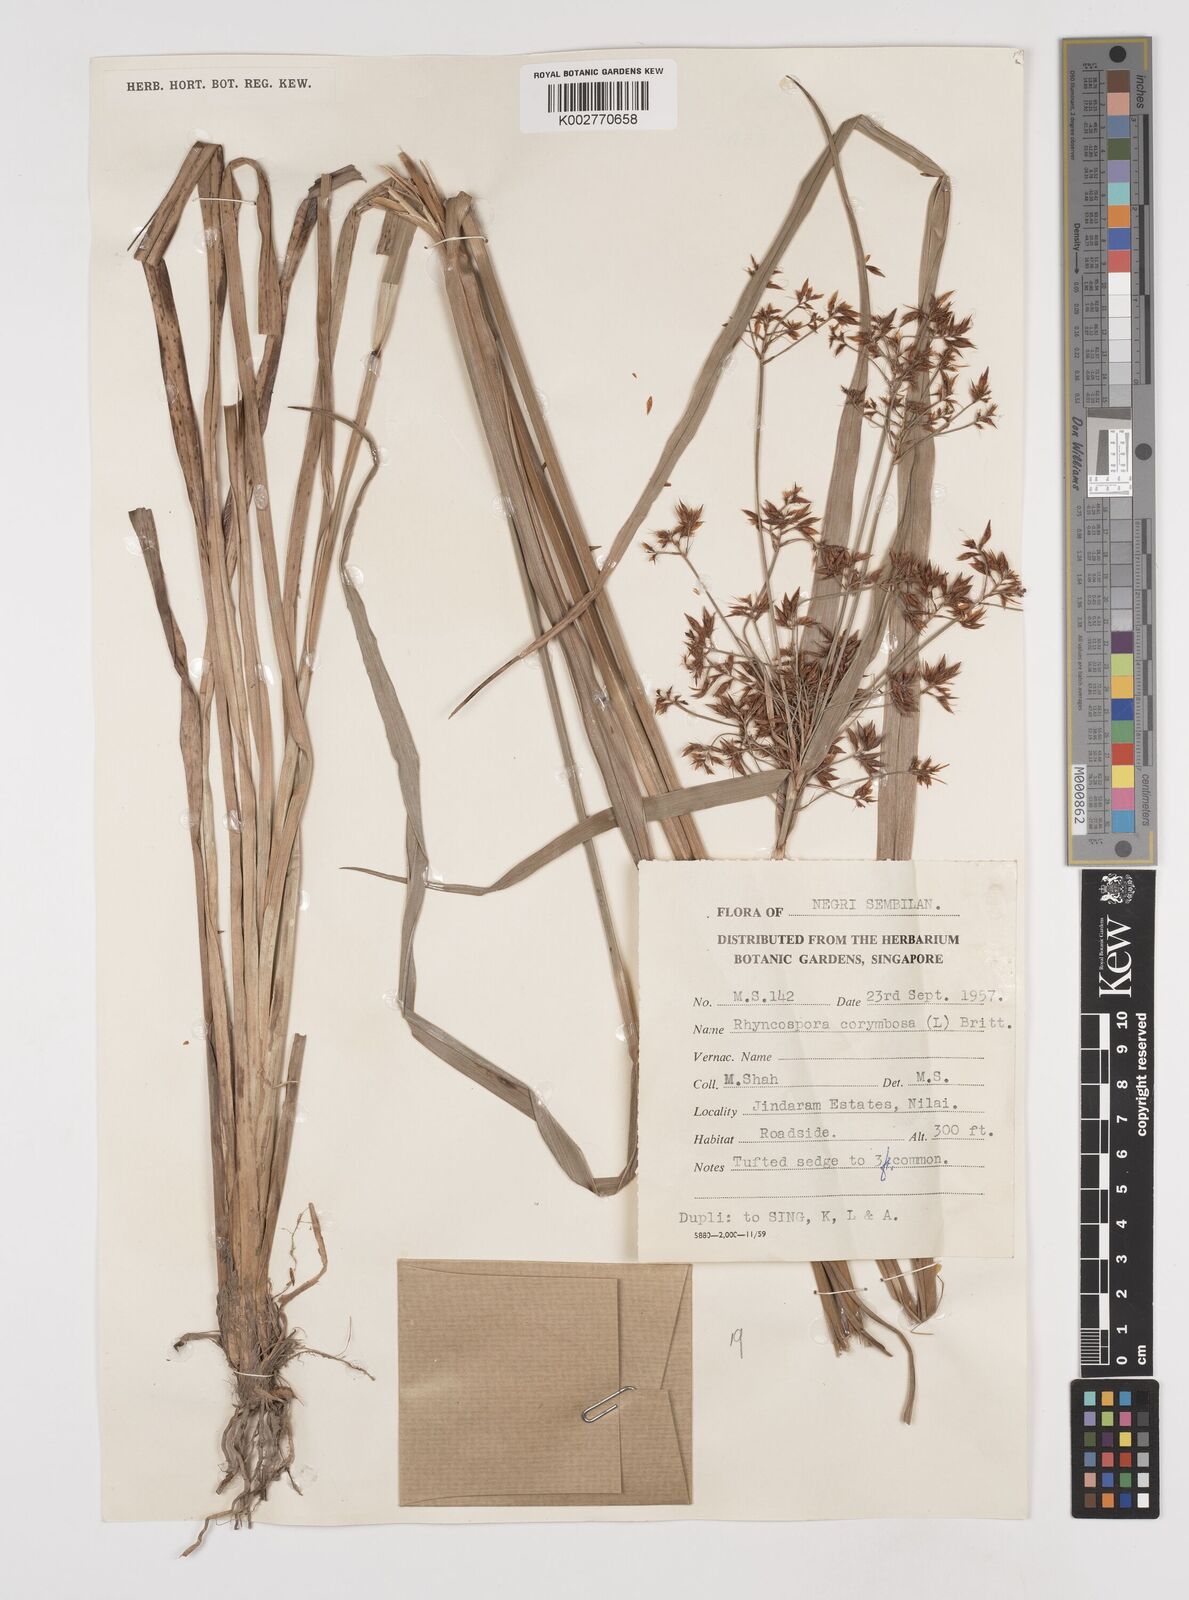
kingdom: Plantae
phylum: Tracheophyta
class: Liliopsida
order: Poales
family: Cyperaceae
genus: Rhynchospora
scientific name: Rhynchospora corymbosa
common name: Golden beak sedge
